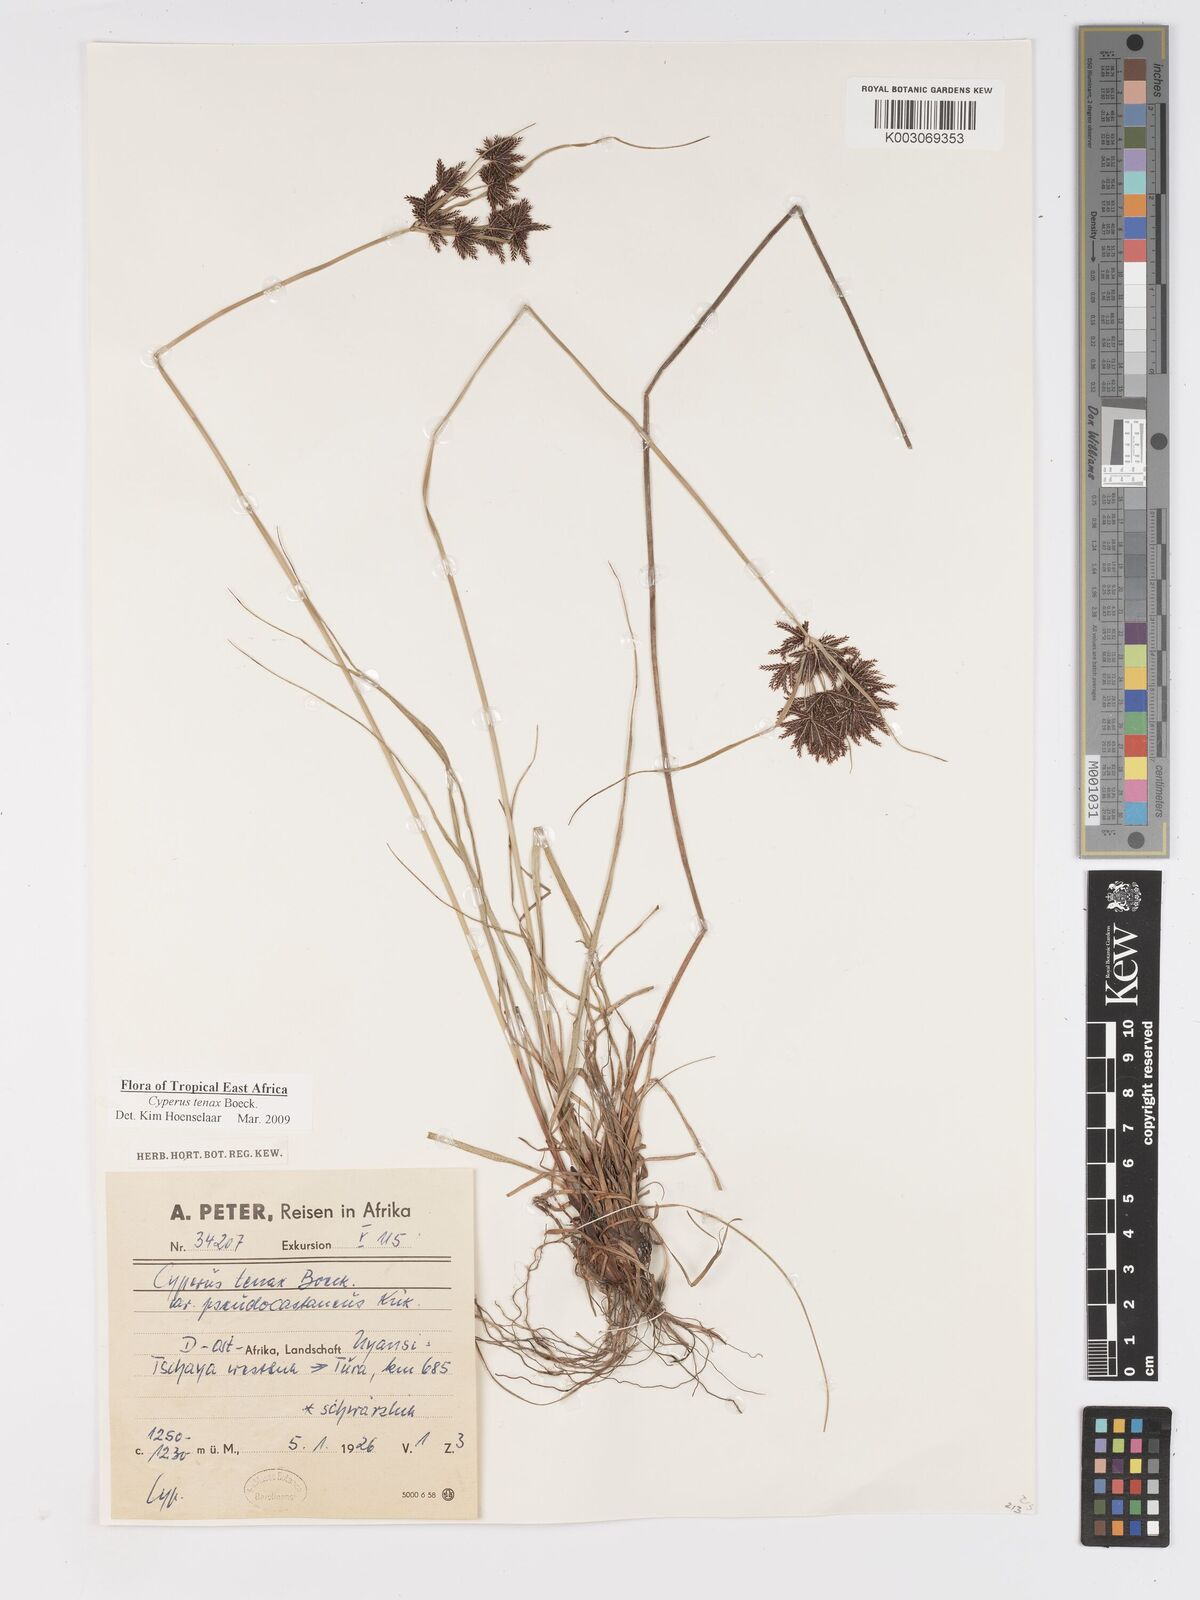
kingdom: Plantae
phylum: Tracheophyta
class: Liliopsida
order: Poales
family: Cyperaceae
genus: Cyperus
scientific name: Cyperus tenax
